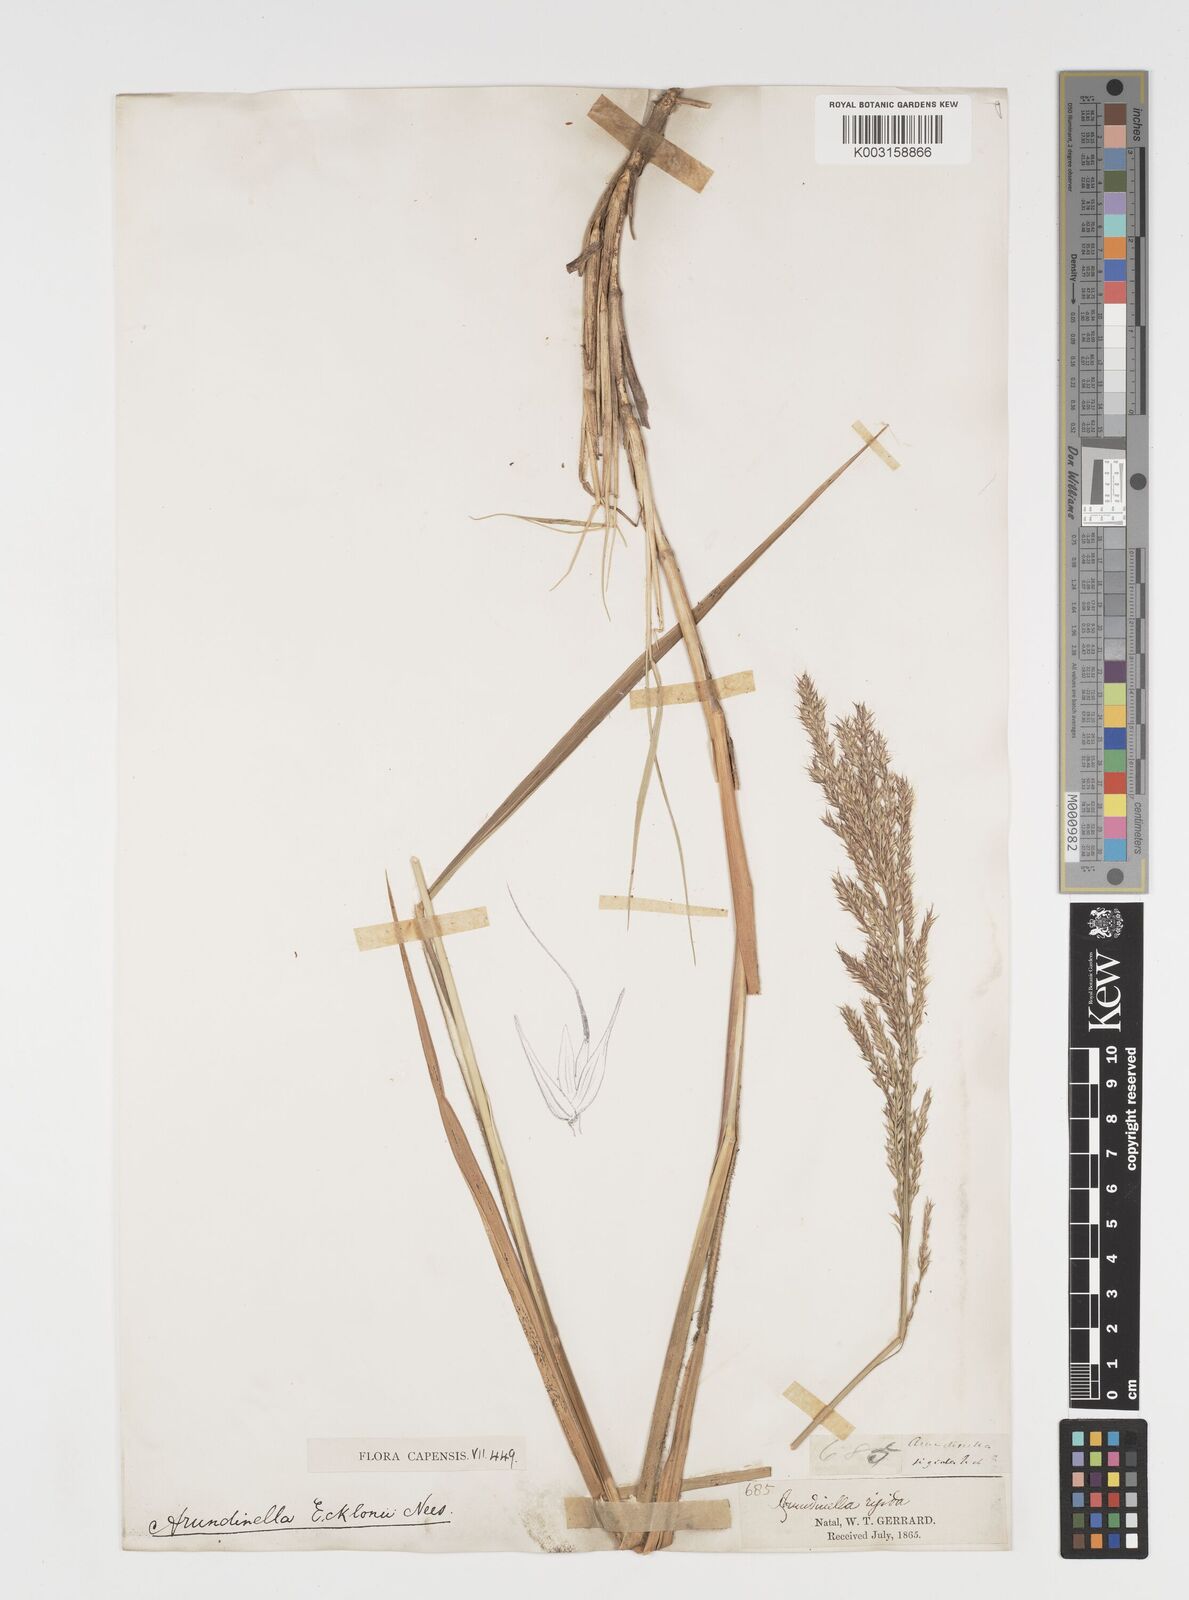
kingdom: Plantae
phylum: Tracheophyta
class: Liliopsida
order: Poales
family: Poaceae
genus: Arundinella
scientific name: Arundinella nepalensis
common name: Reed grass
